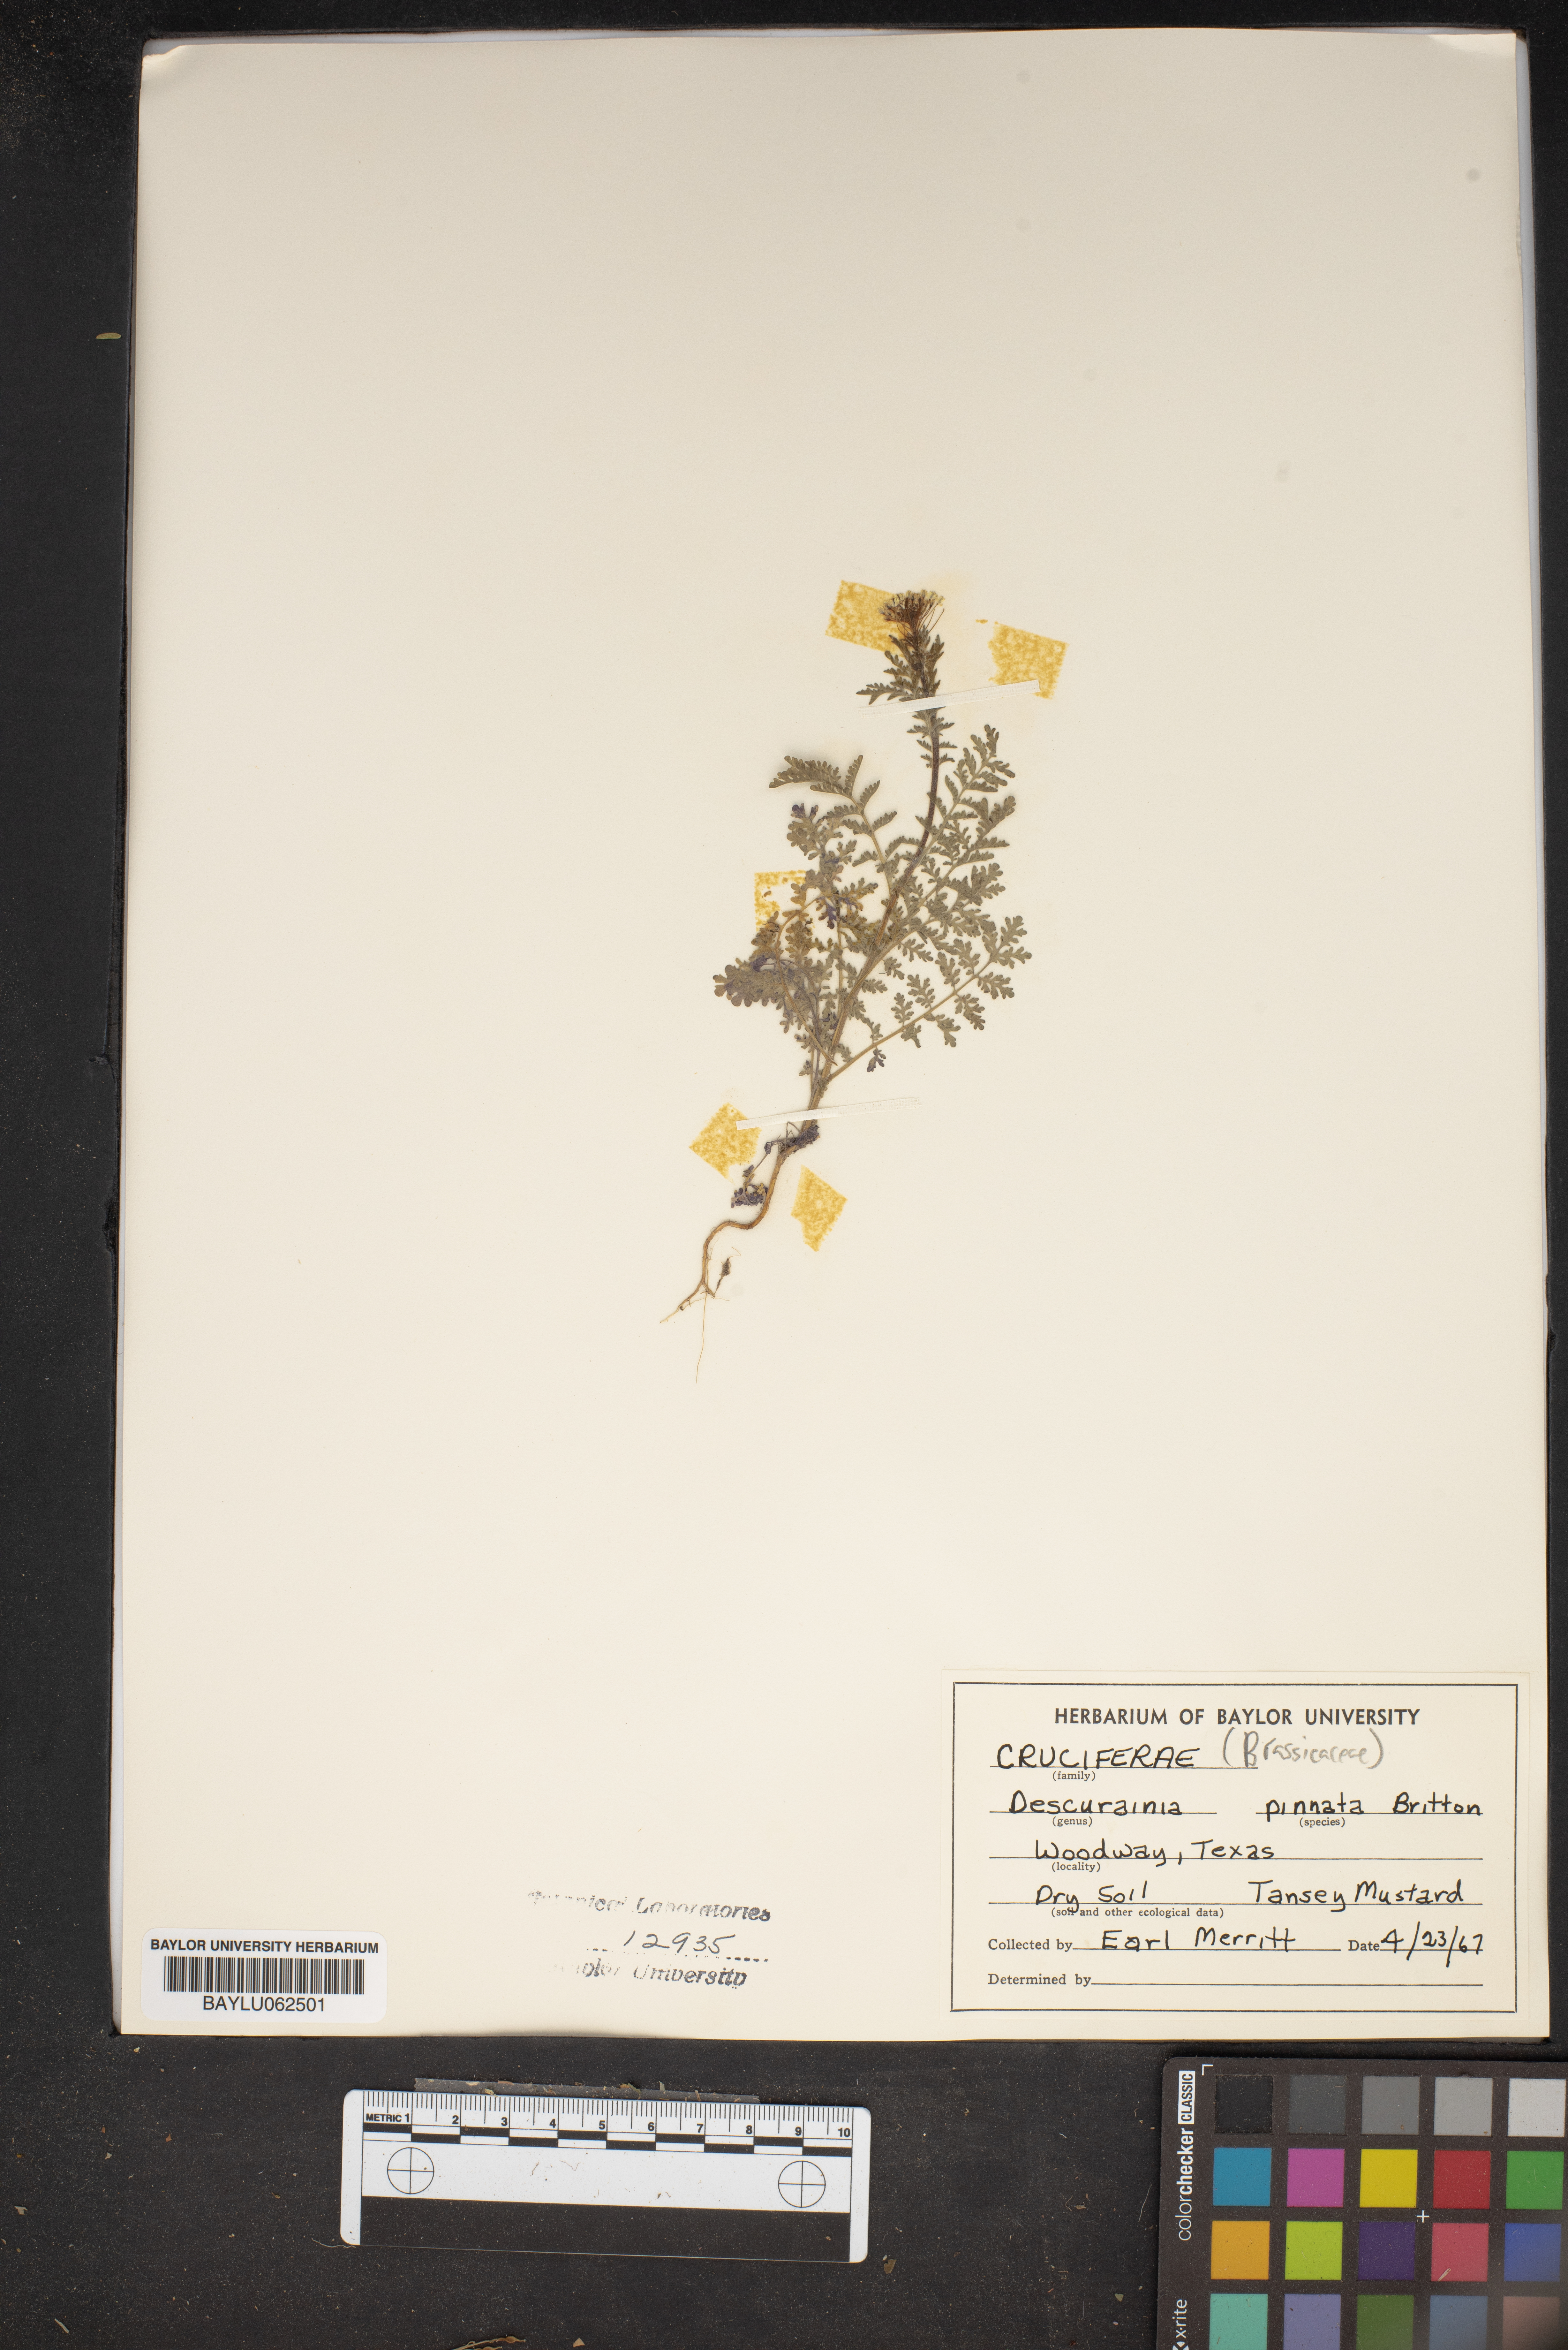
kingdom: Plantae
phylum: Tracheophyta
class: Magnoliopsida
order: Brassicales
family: Brassicaceae
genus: Descurainia
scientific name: Descurainia pinnata
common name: Western tansy mustard
